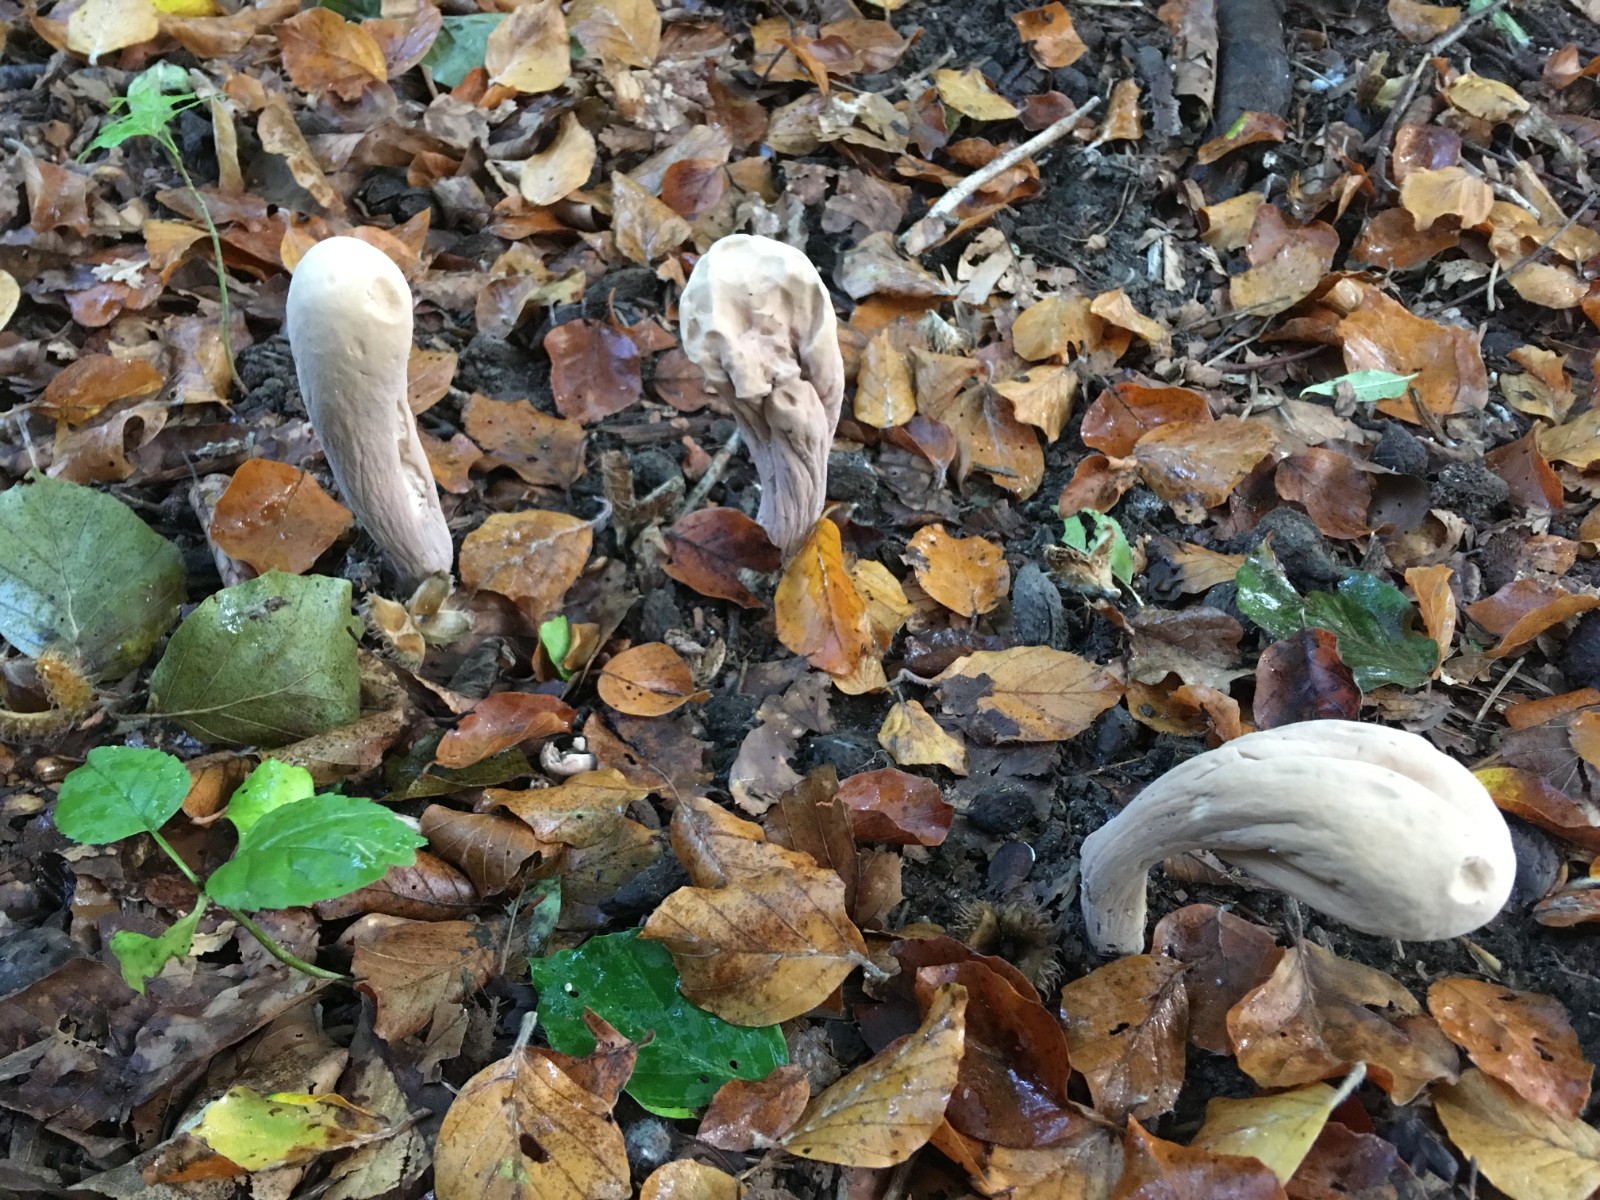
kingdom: Fungi
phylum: Basidiomycota
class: Agaricomycetes
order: Gomphales
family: Clavariadelphaceae
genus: Clavariadelphus
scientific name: Clavariadelphus pistillaris
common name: herkules-kæmpekølle
